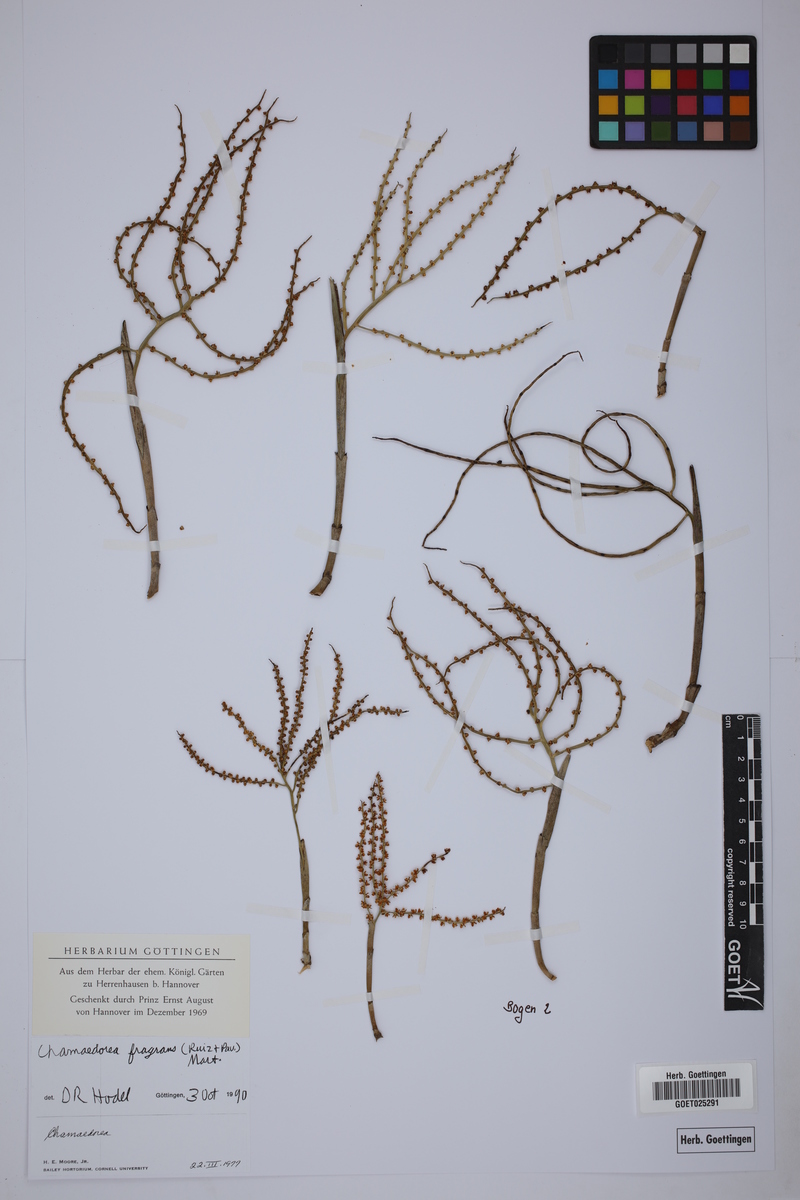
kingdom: Plantae
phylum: Tracheophyta
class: Liliopsida
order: Arecales
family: Arecaceae
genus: Chamaedorea
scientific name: Chamaedorea fragrans
